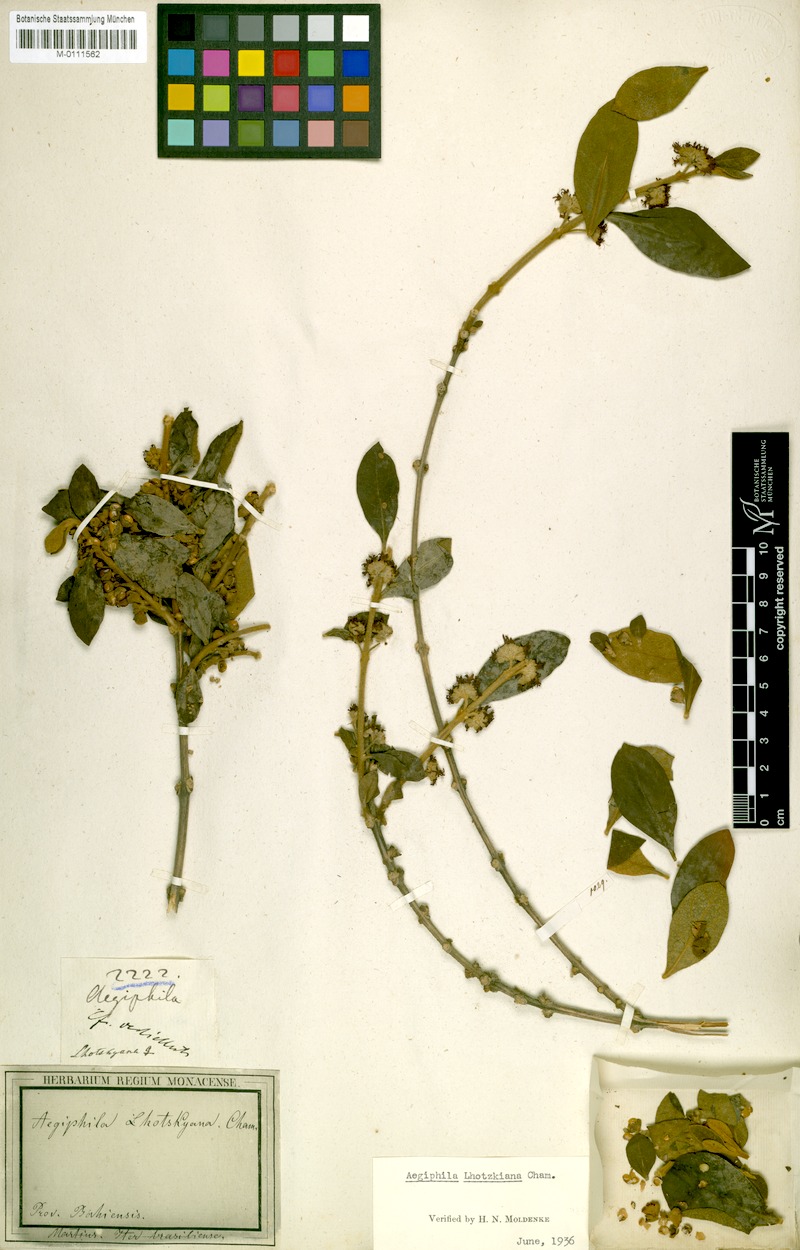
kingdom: Plantae
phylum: Tracheophyta
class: Magnoliopsida
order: Lamiales
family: Lamiaceae
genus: Aegiphila
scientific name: Aegiphila lhotskiana
